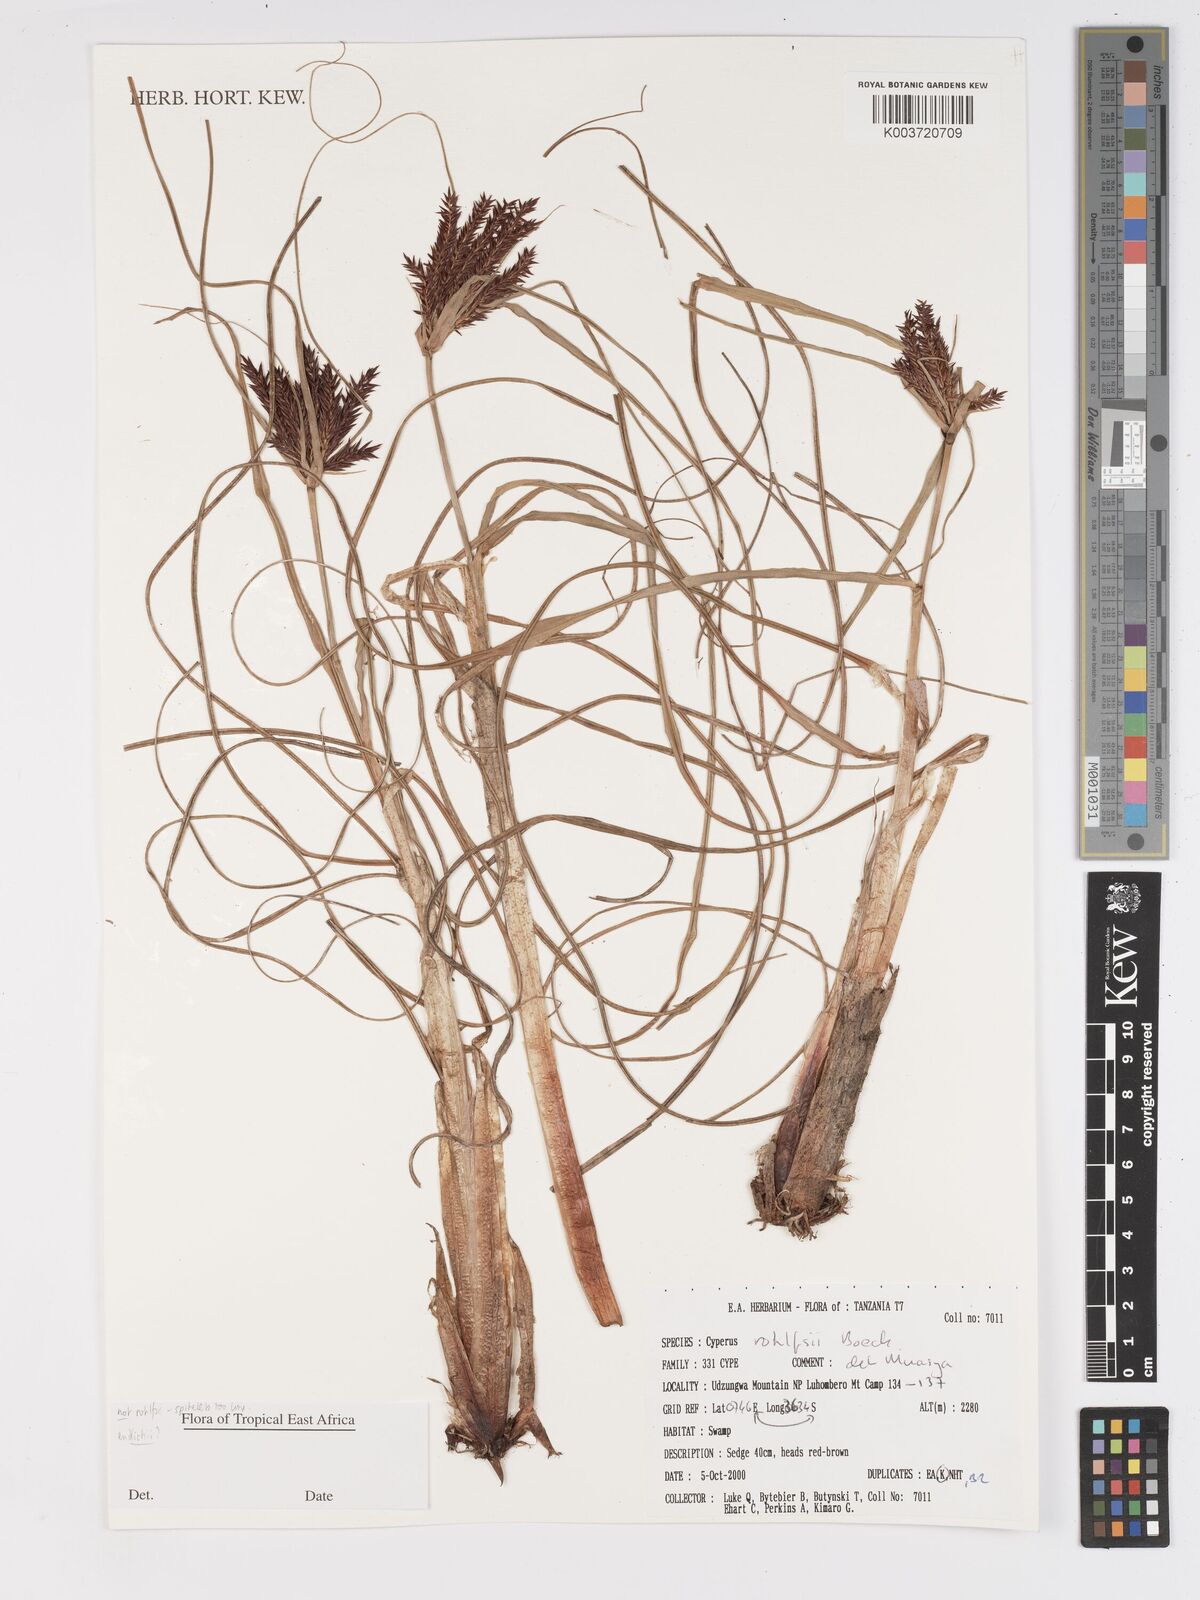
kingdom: Plantae
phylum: Tracheophyta
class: Liliopsida
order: Poales
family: Cyperaceae
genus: Cyperus
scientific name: Cyperus rohlfsii
